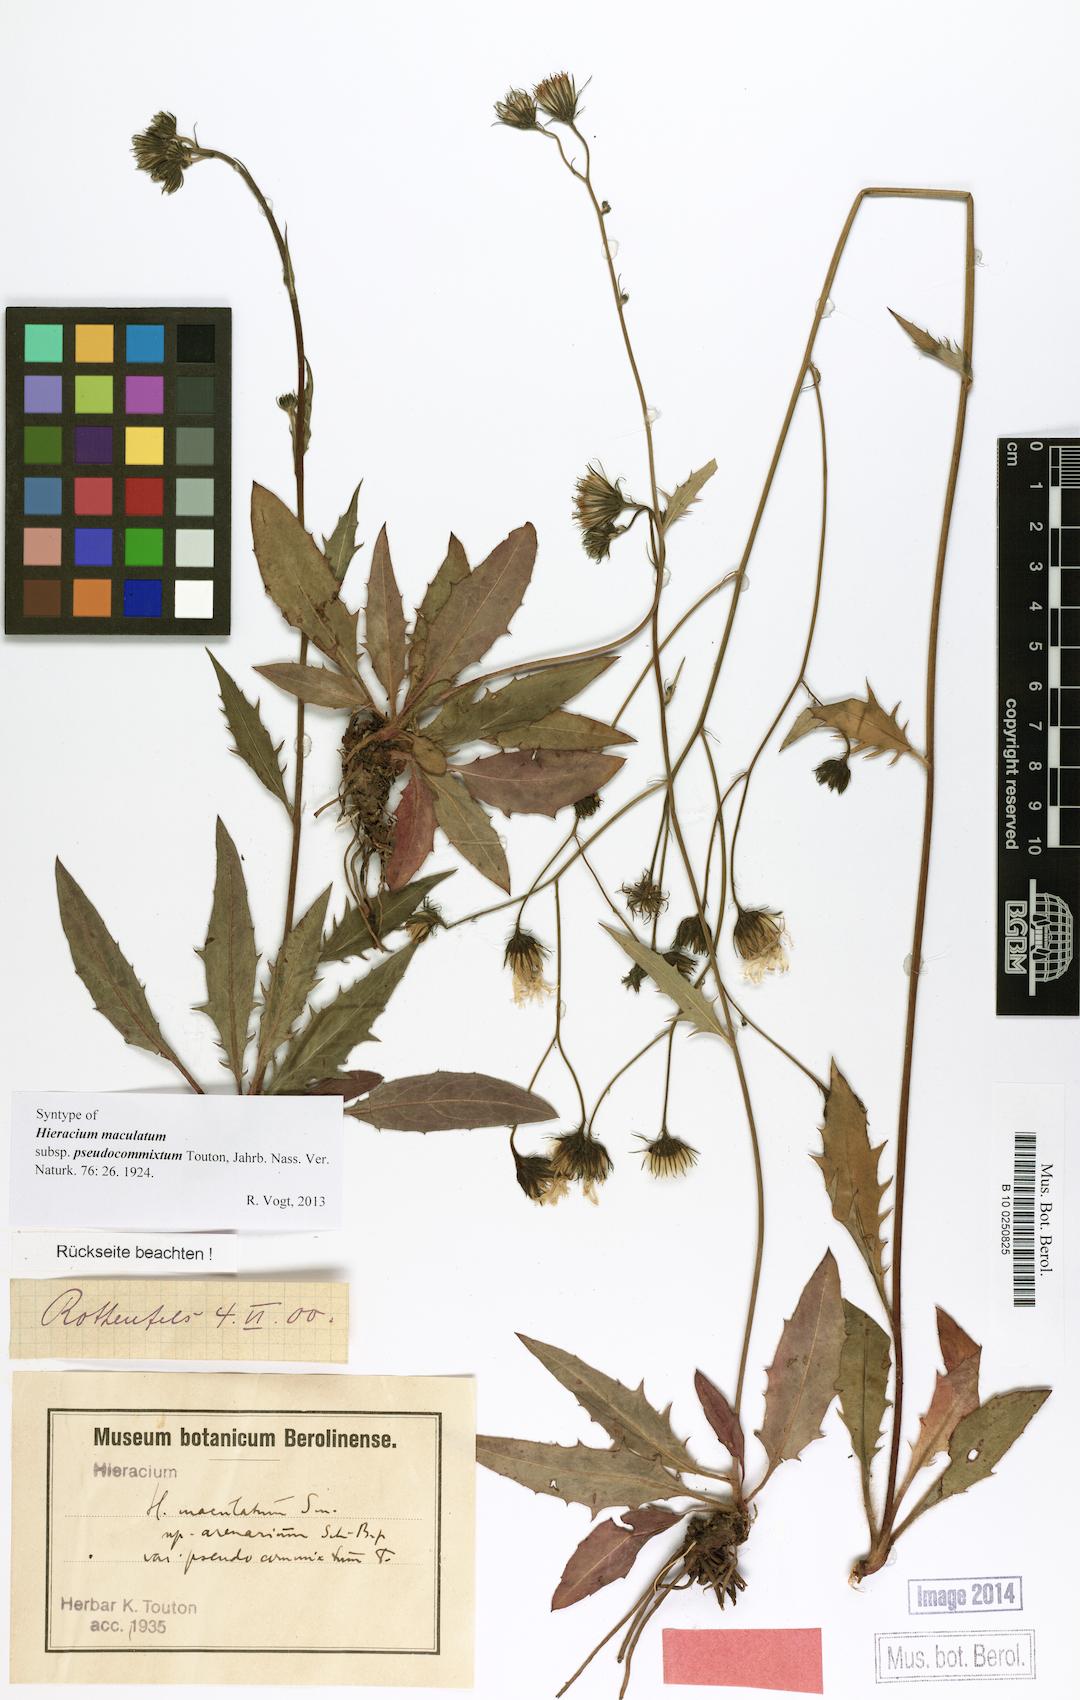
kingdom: Plantae
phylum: Tracheophyta
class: Magnoliopsida
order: Asterales
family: Asteraceae
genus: Hieracium
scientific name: Hieracium maculatum
